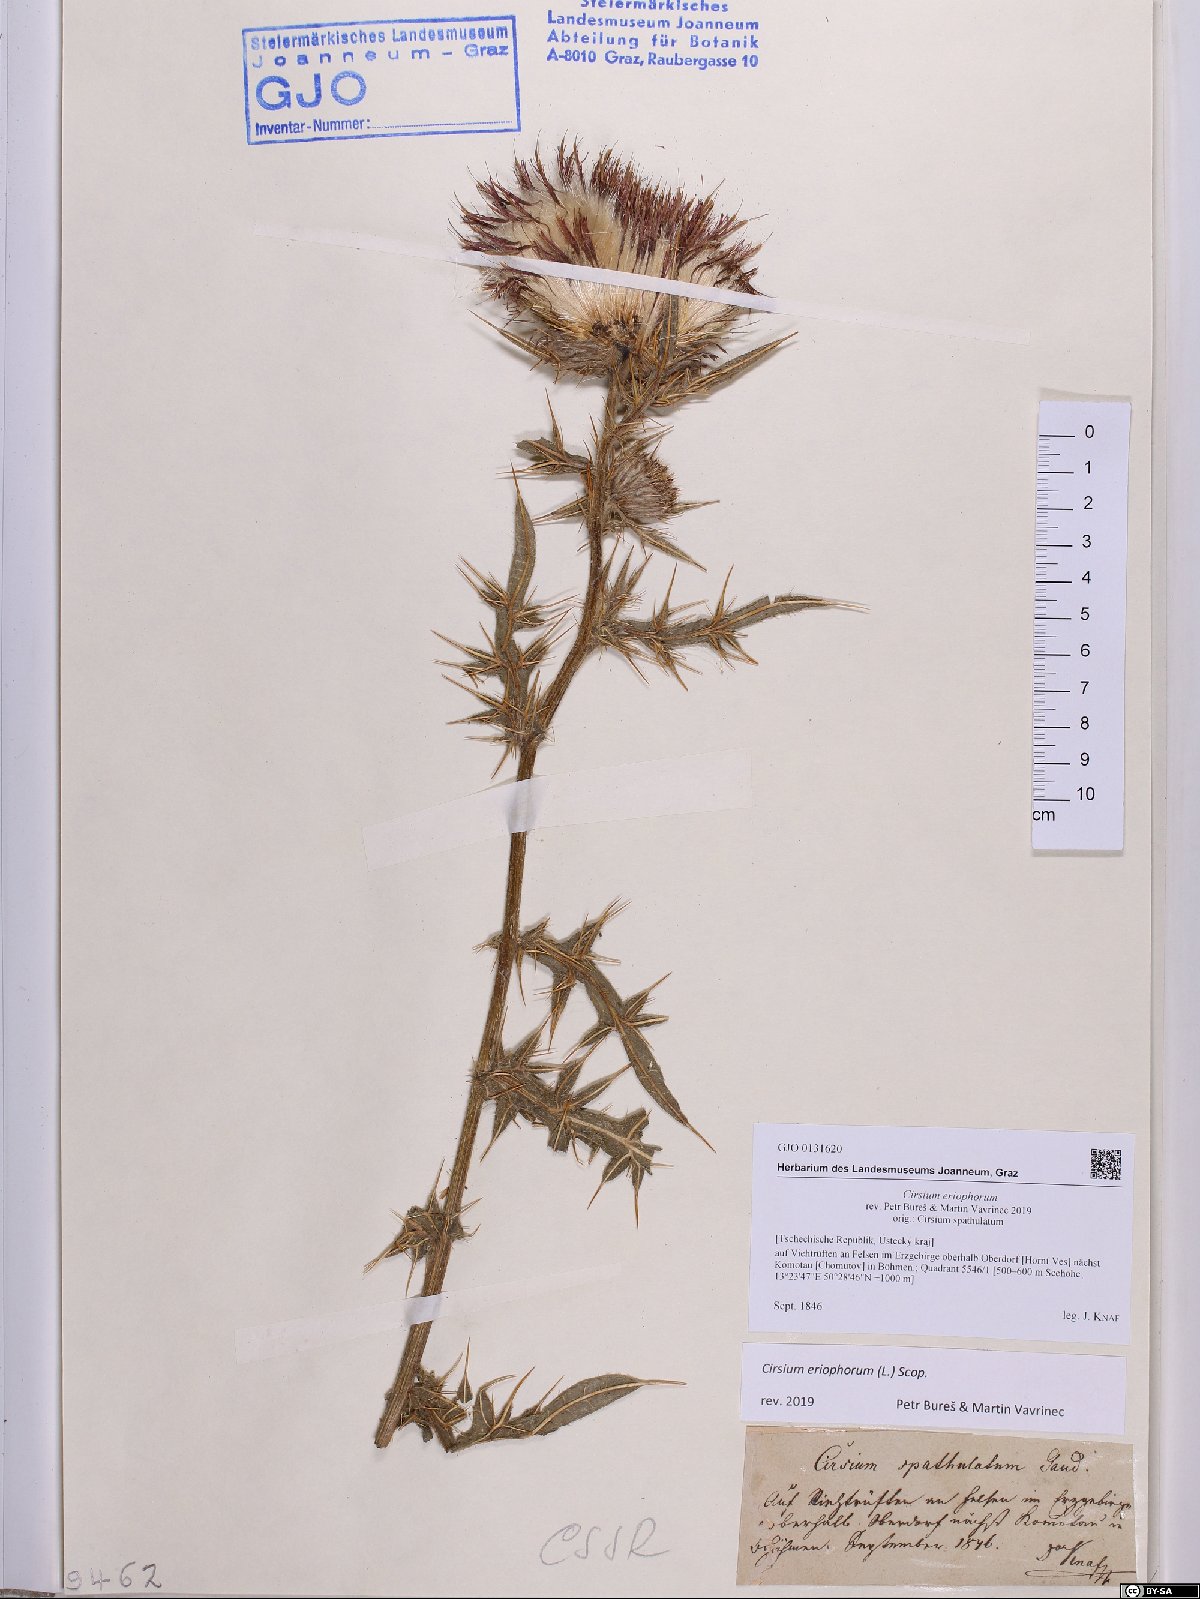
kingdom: Plantae
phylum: Tracheophyta
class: Magnoliopsida
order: Asterales
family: Asteraceae
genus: Lophiolepis
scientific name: Lophiolepis eriophora
